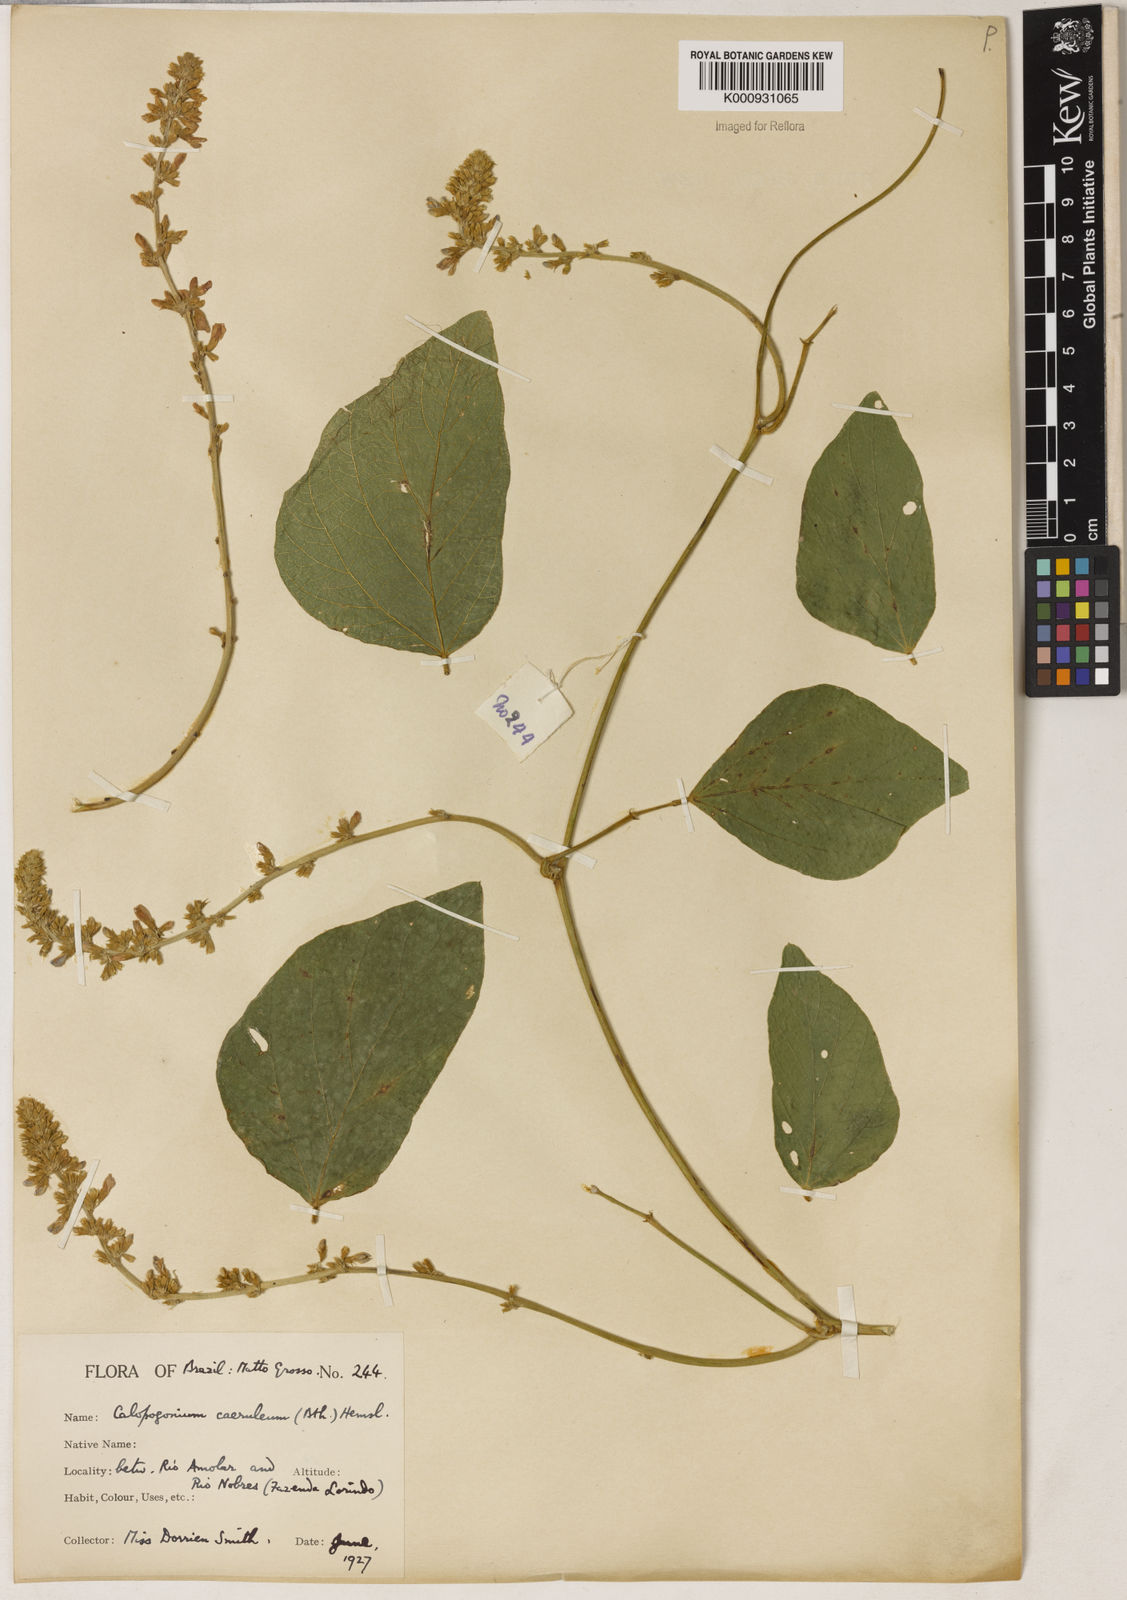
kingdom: Plantae
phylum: Tracheophyta
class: Magnoliopsida
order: Fabales
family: Fabaceae
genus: Calopogonium
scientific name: Calopogonium caeruleum
